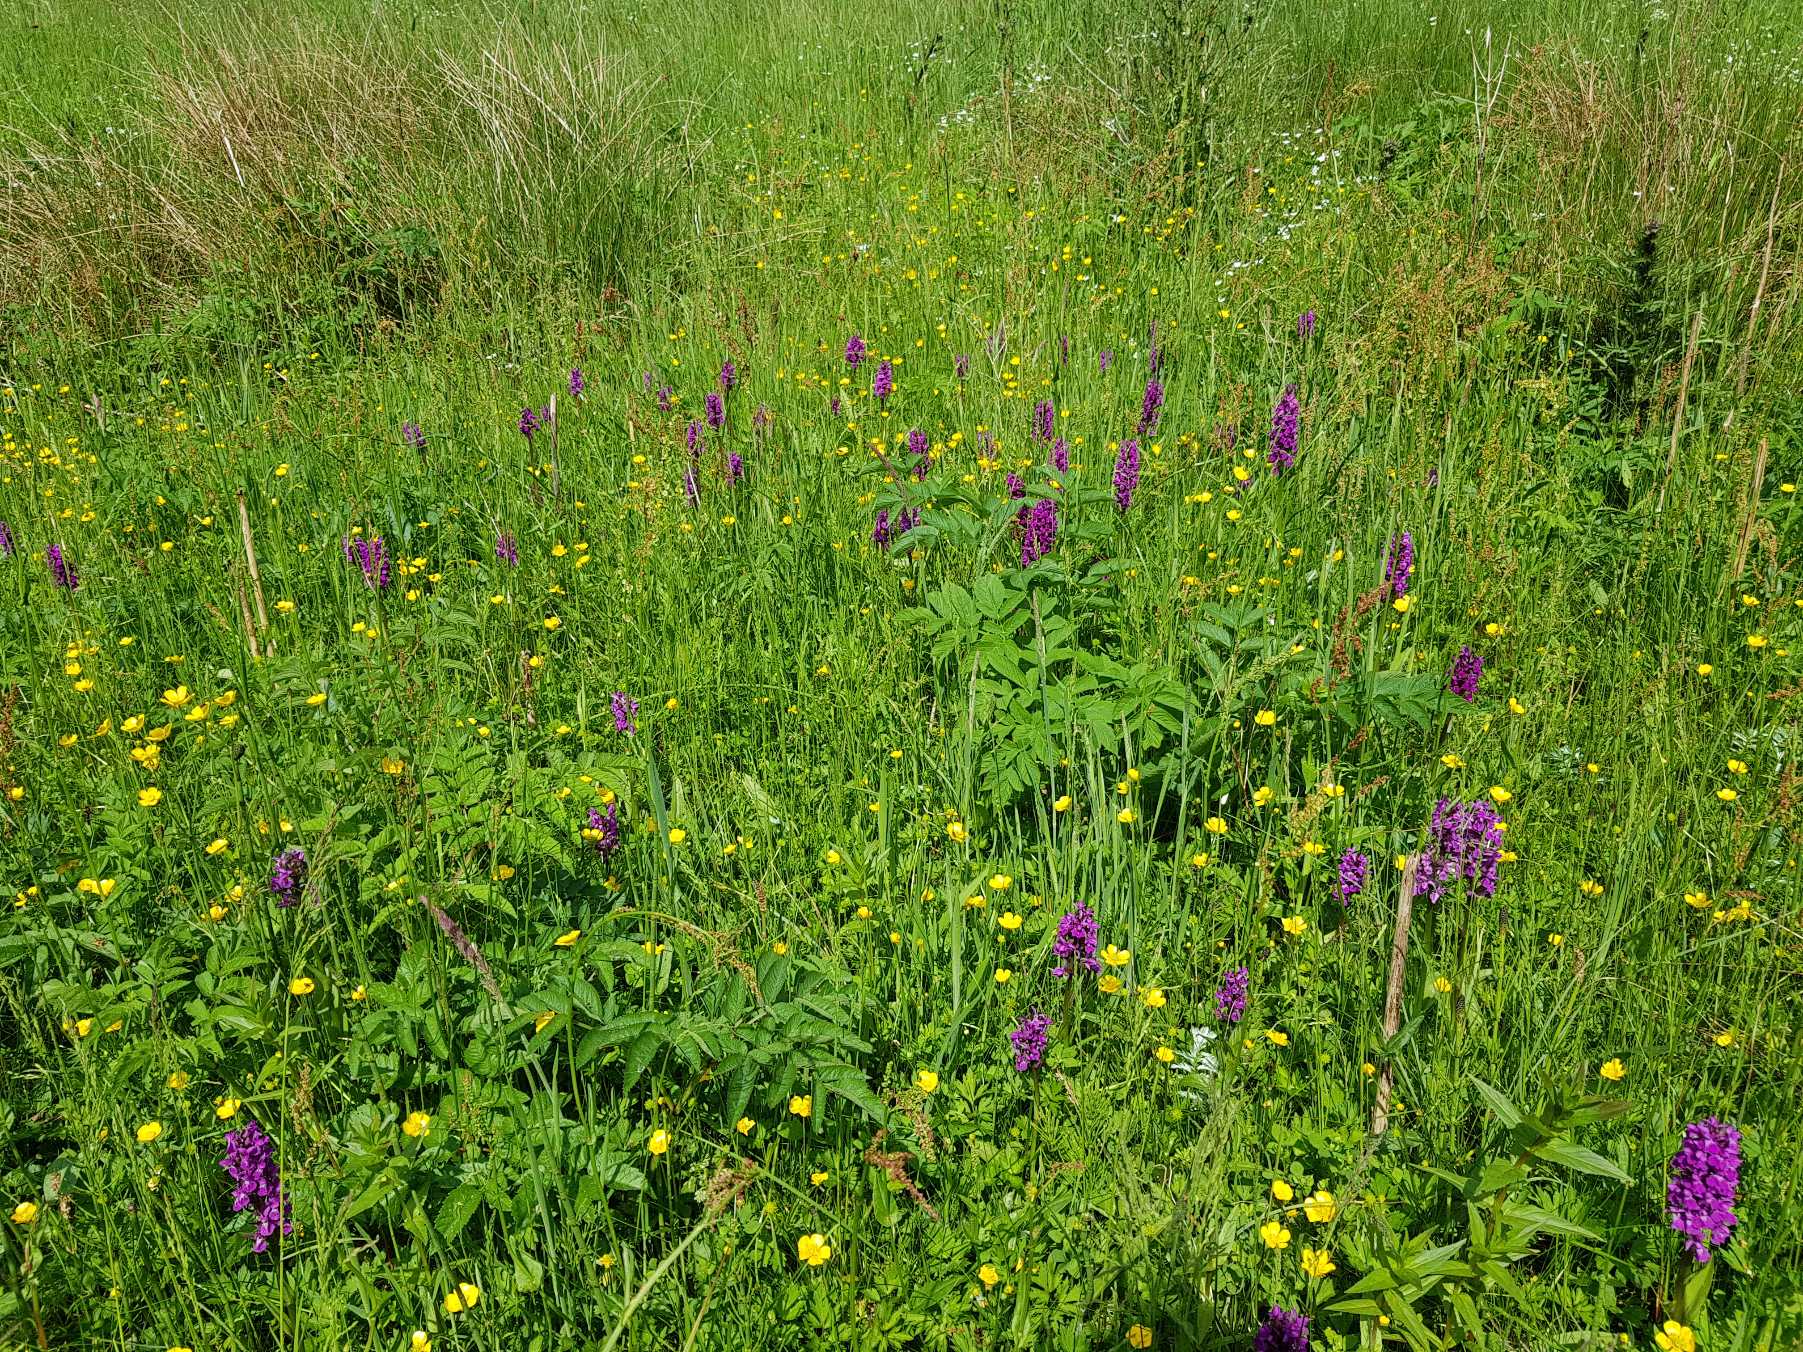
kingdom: Plantae
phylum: Tracheophyta
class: Liliopsida
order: Asparagales
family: Orchidaceae
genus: Dactylorhiza
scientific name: Dactylorhiza majalis
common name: Maj-gøgeurt
